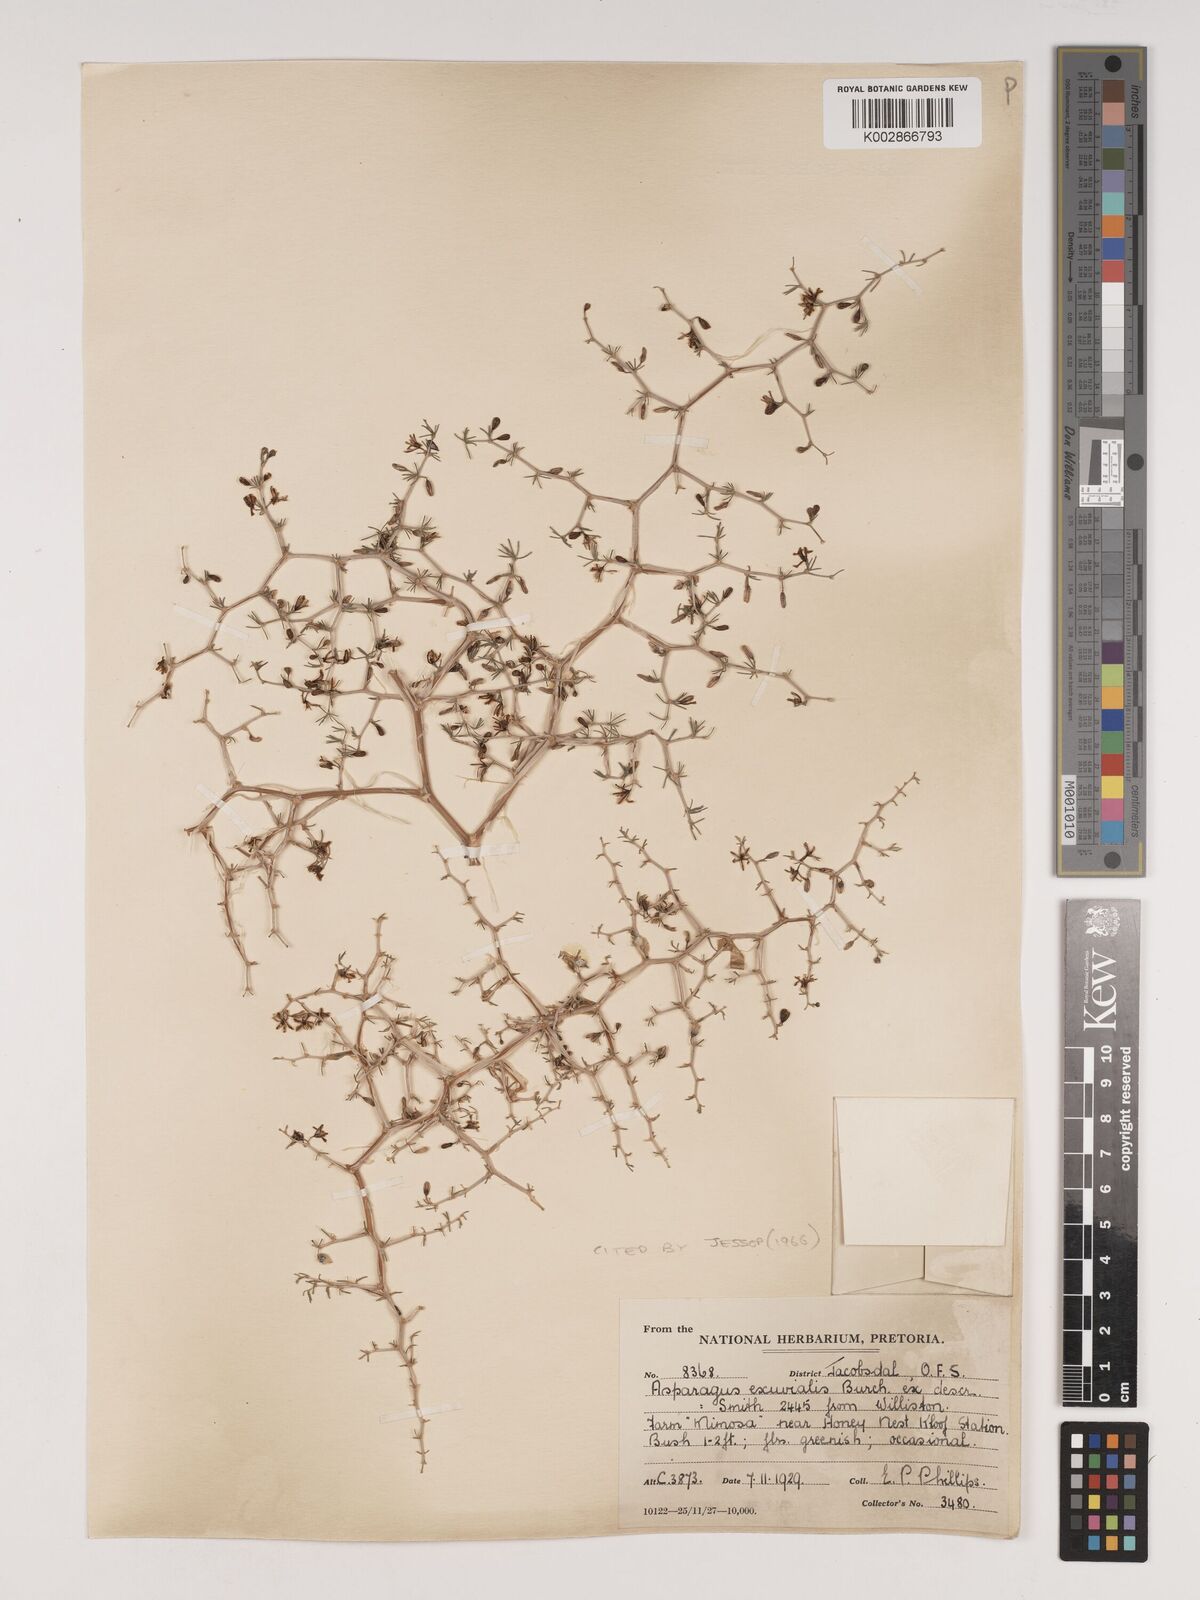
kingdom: Plantae
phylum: Tracheophyta
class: Liliopsida
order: Asparagales
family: Asparagaceae
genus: Asparagus
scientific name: Asparagus exuvialis
